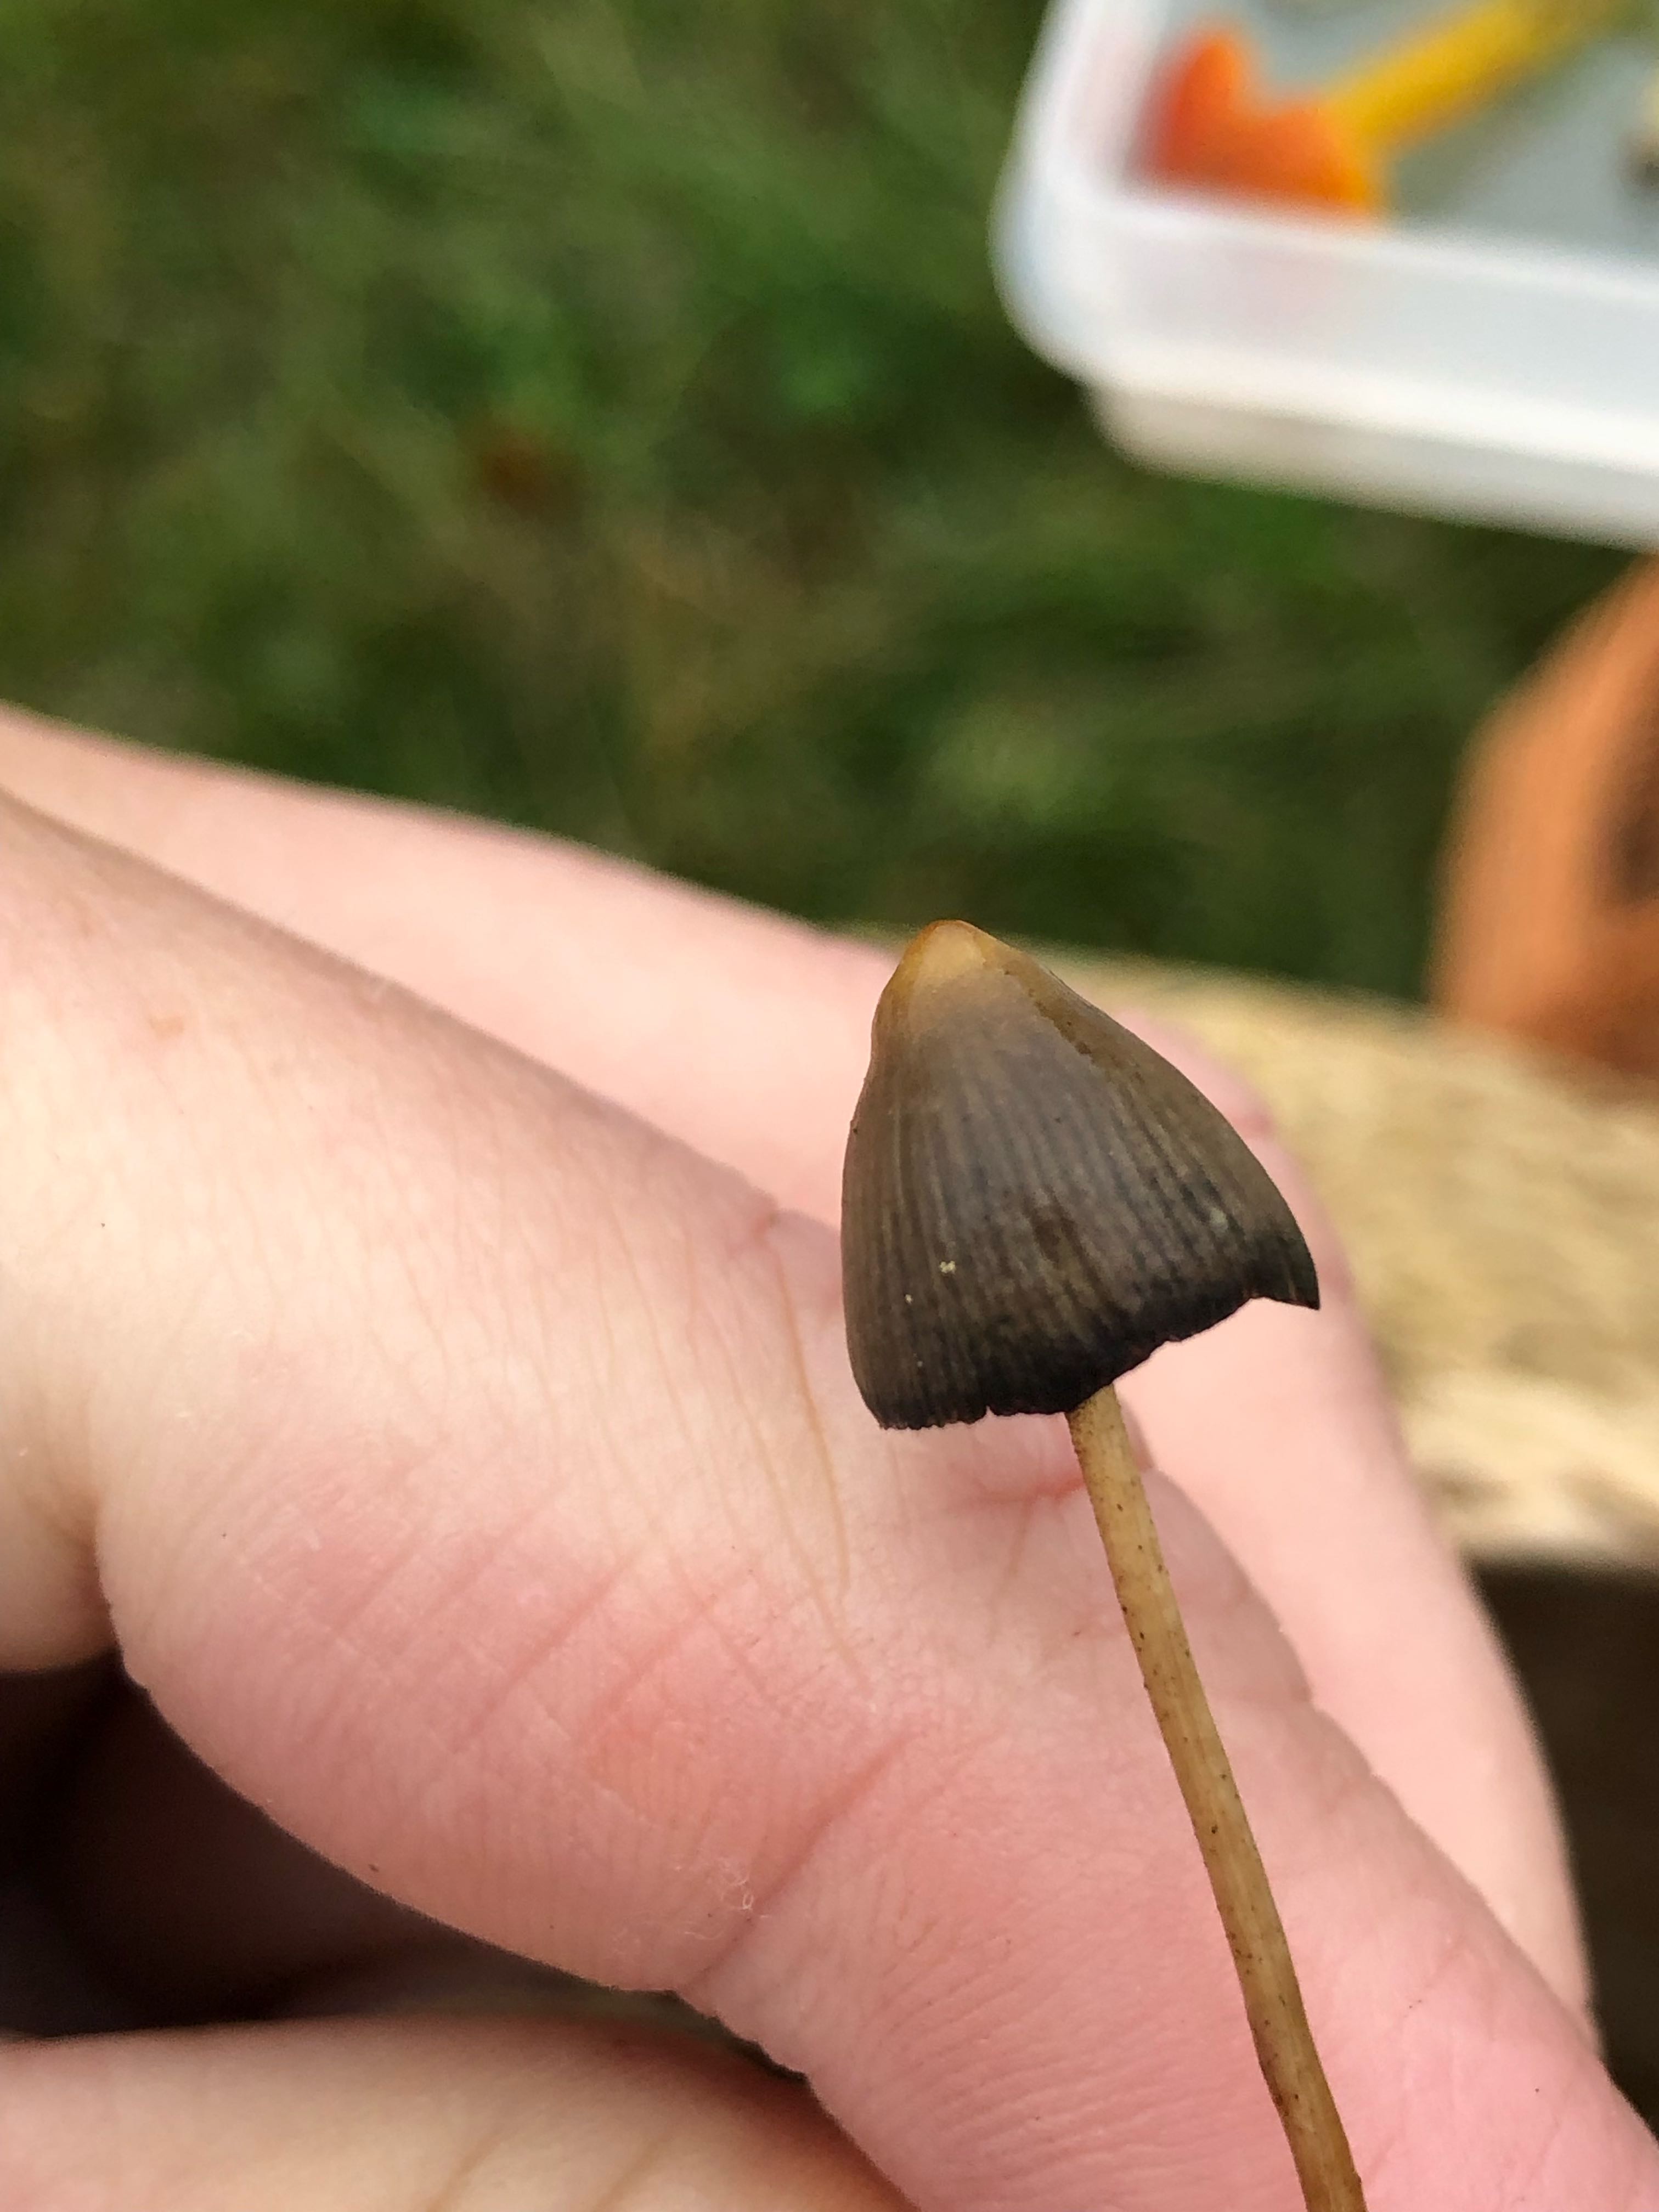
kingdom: Fungi
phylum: Basidiomycota
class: Agaricomycetes
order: Agaricales
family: Hymenogastraceae
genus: Psilocybe
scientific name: Psilocybe semilanceata
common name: spids nøgenhat
